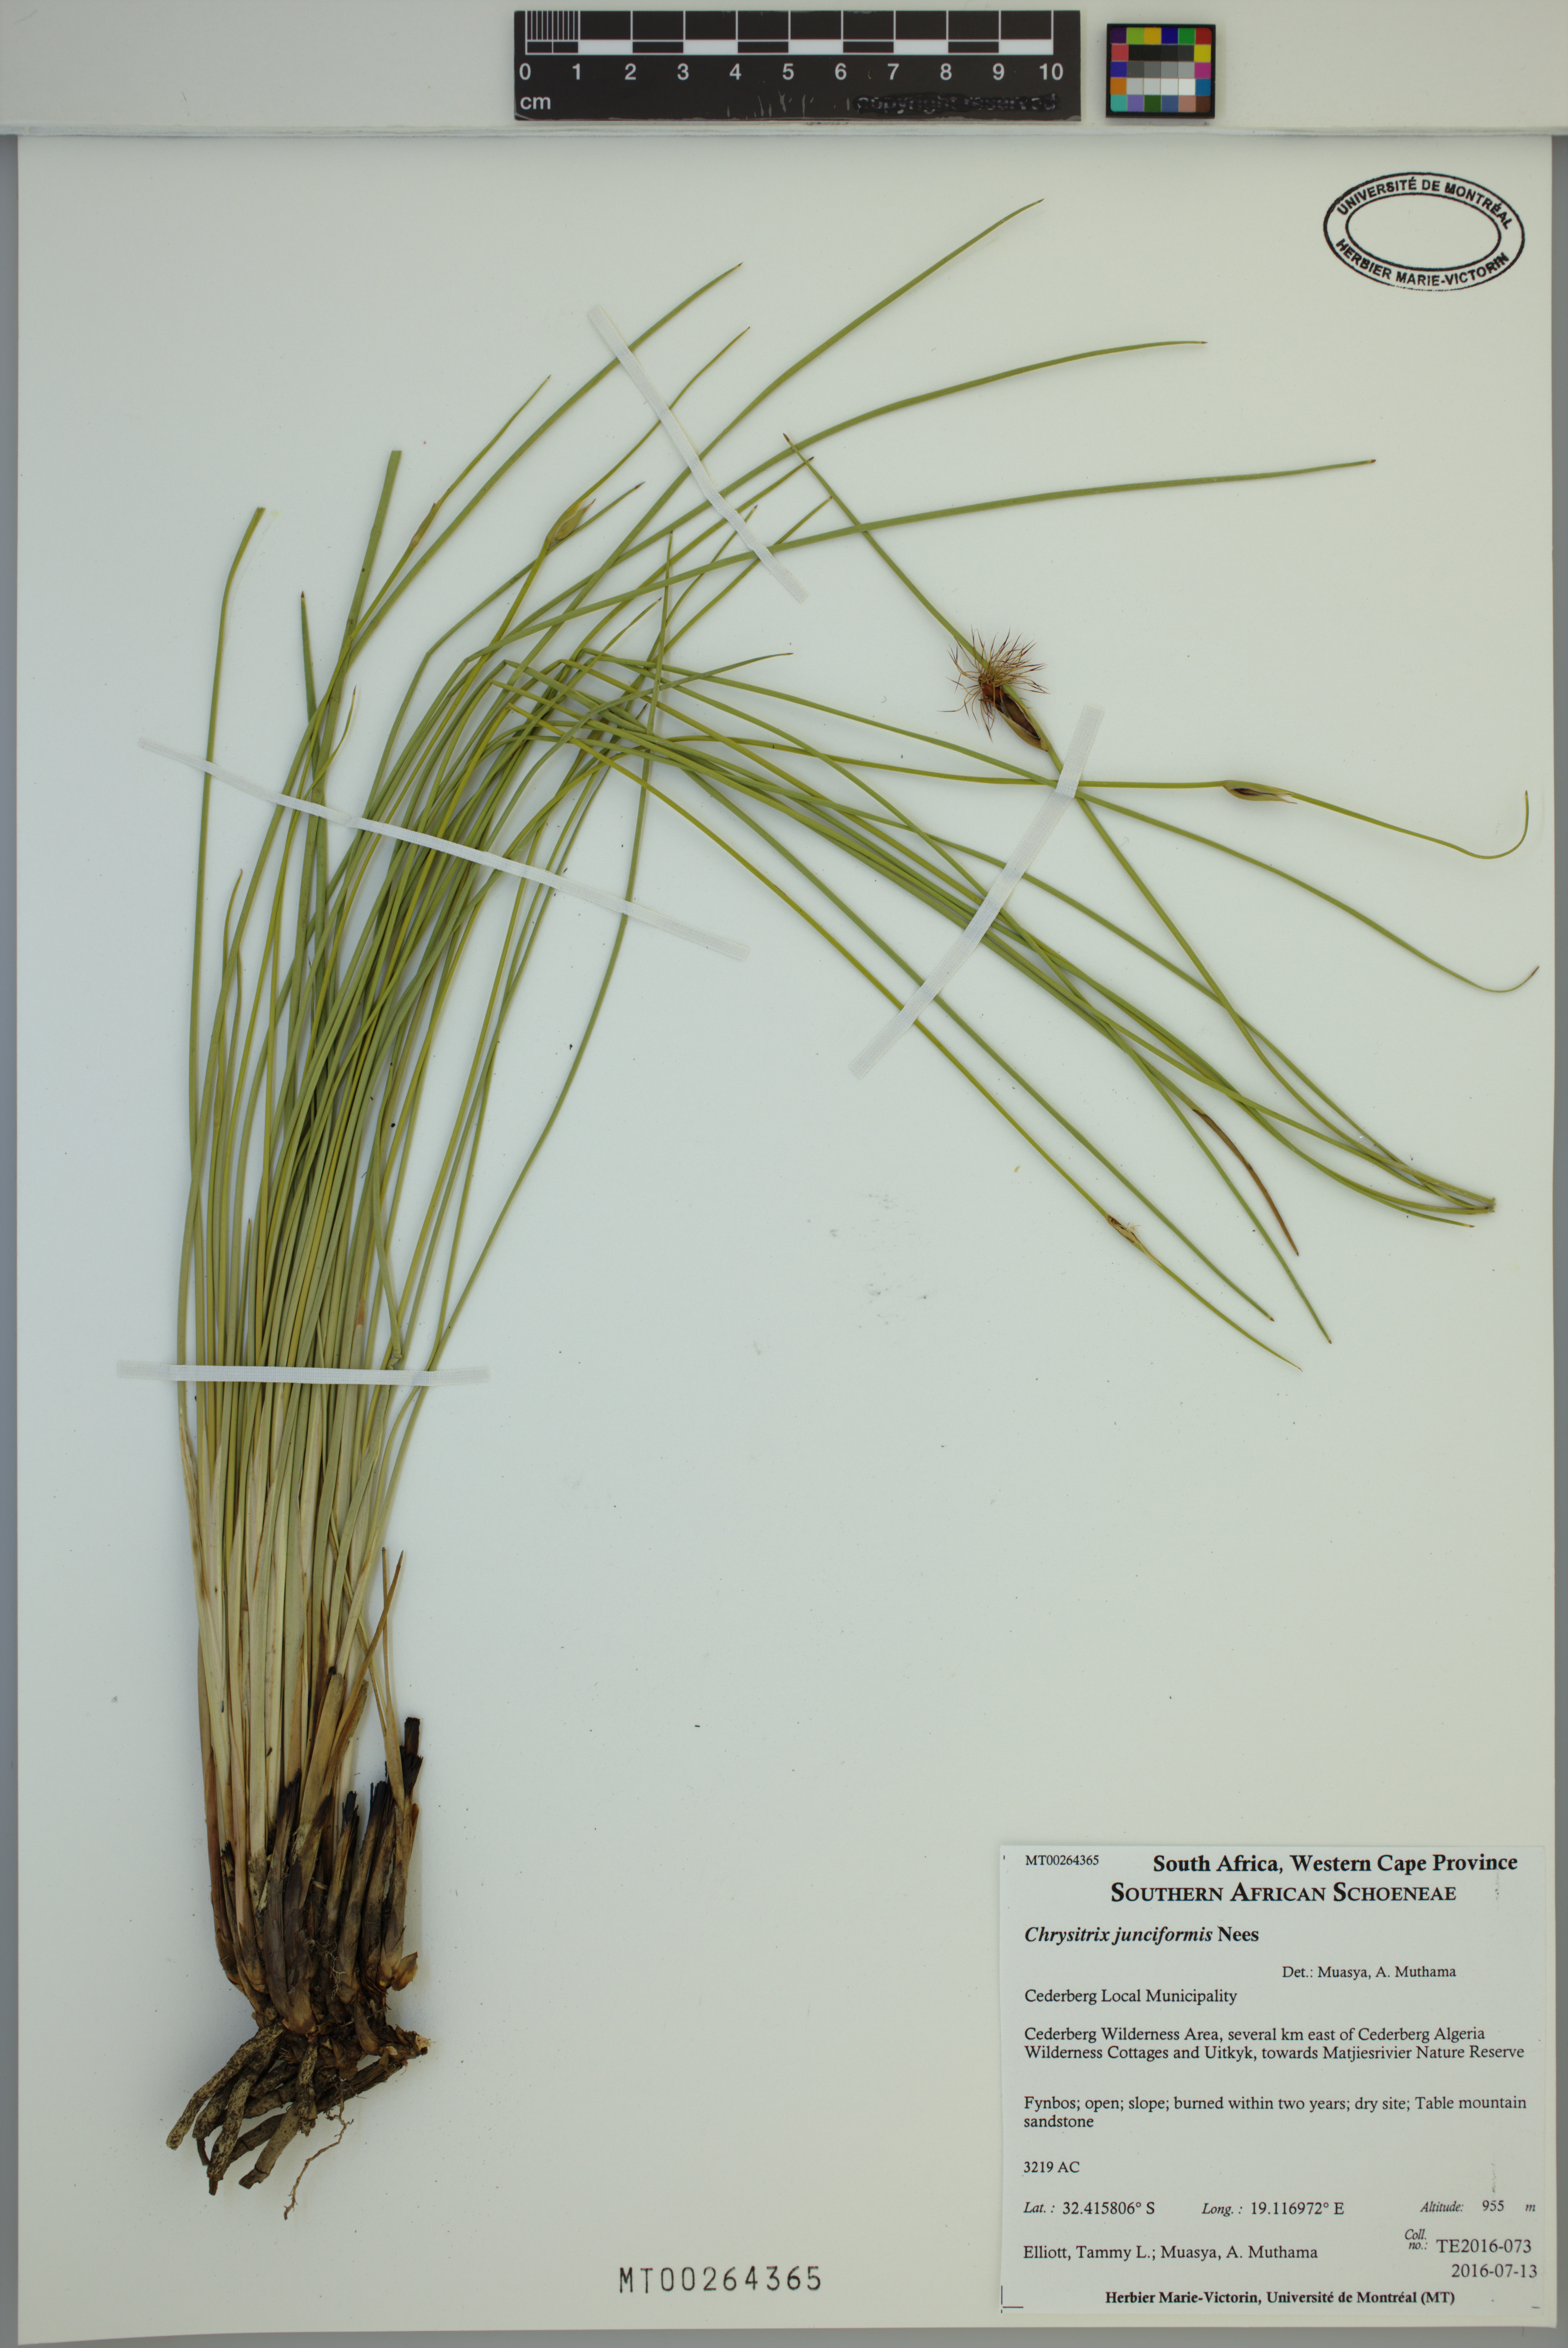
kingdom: Plantae
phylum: Tracheophyta
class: Liliopsida
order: Poales
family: Cyperaceae
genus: Chrysitrix
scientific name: Chrysitrix junciformis
